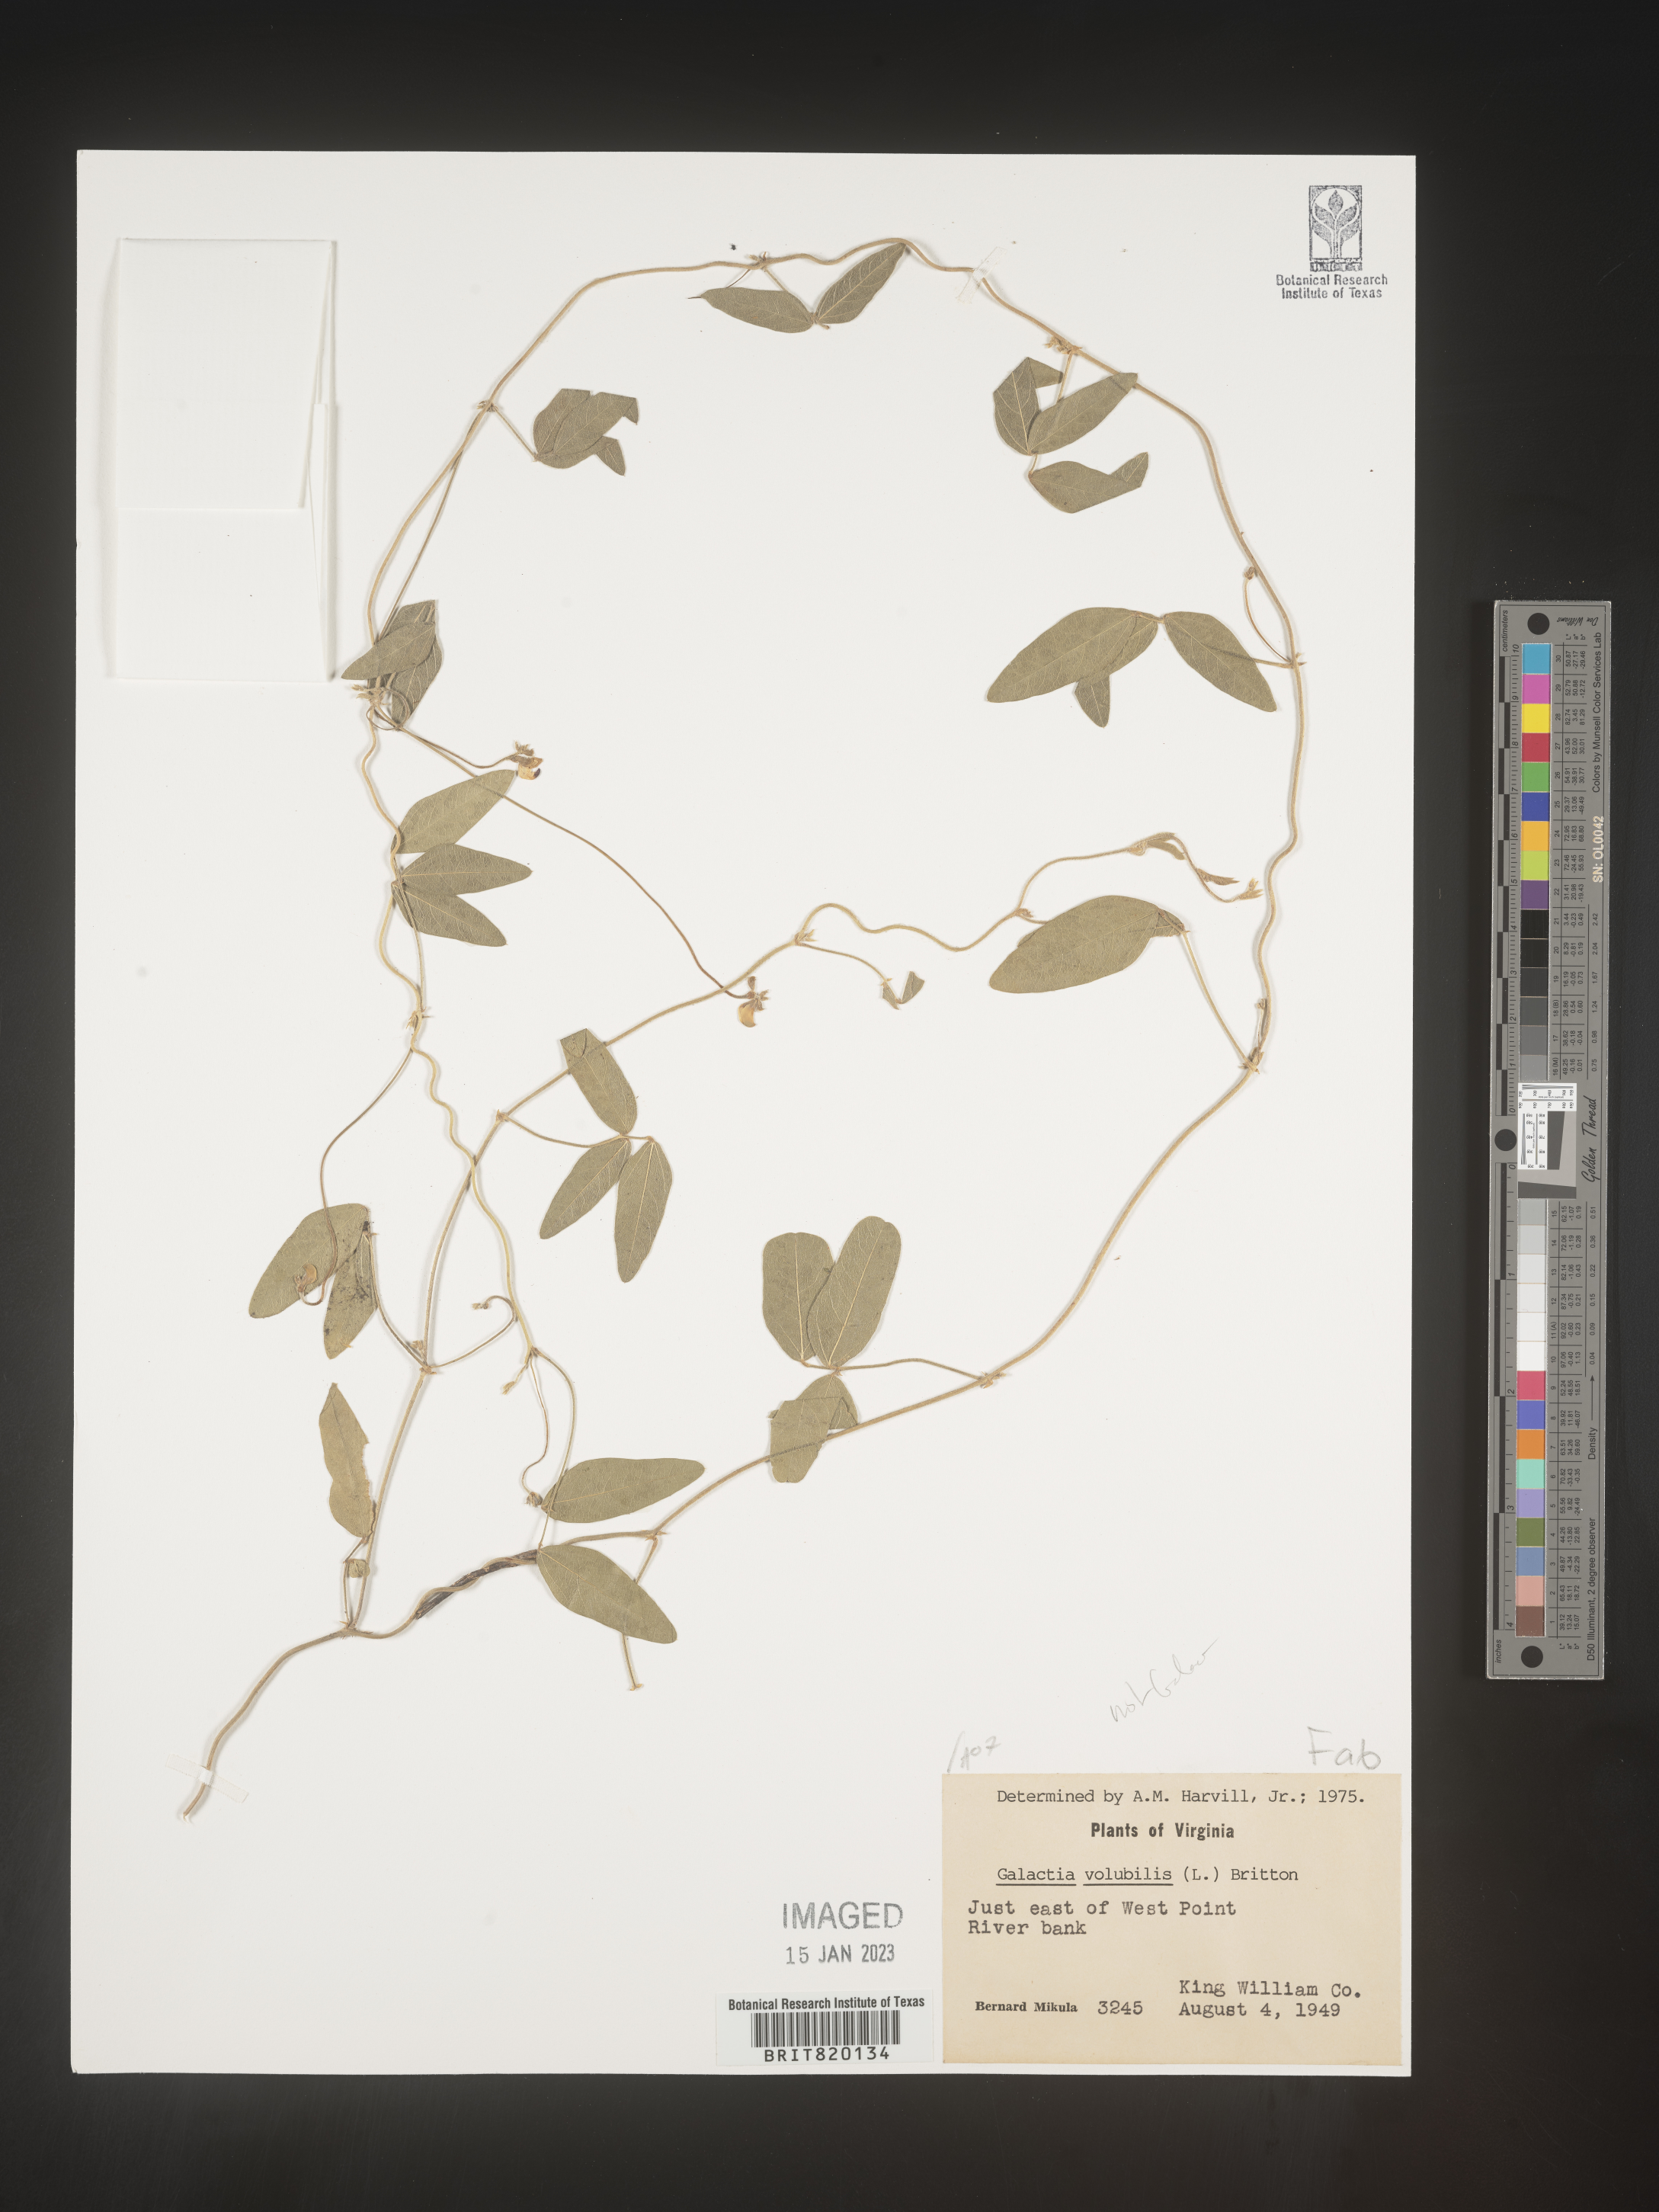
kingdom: Plantae
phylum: Tracheophyta
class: Magnoliopsida
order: Fabales
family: Fabaceae
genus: Galactia
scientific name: Galactia
